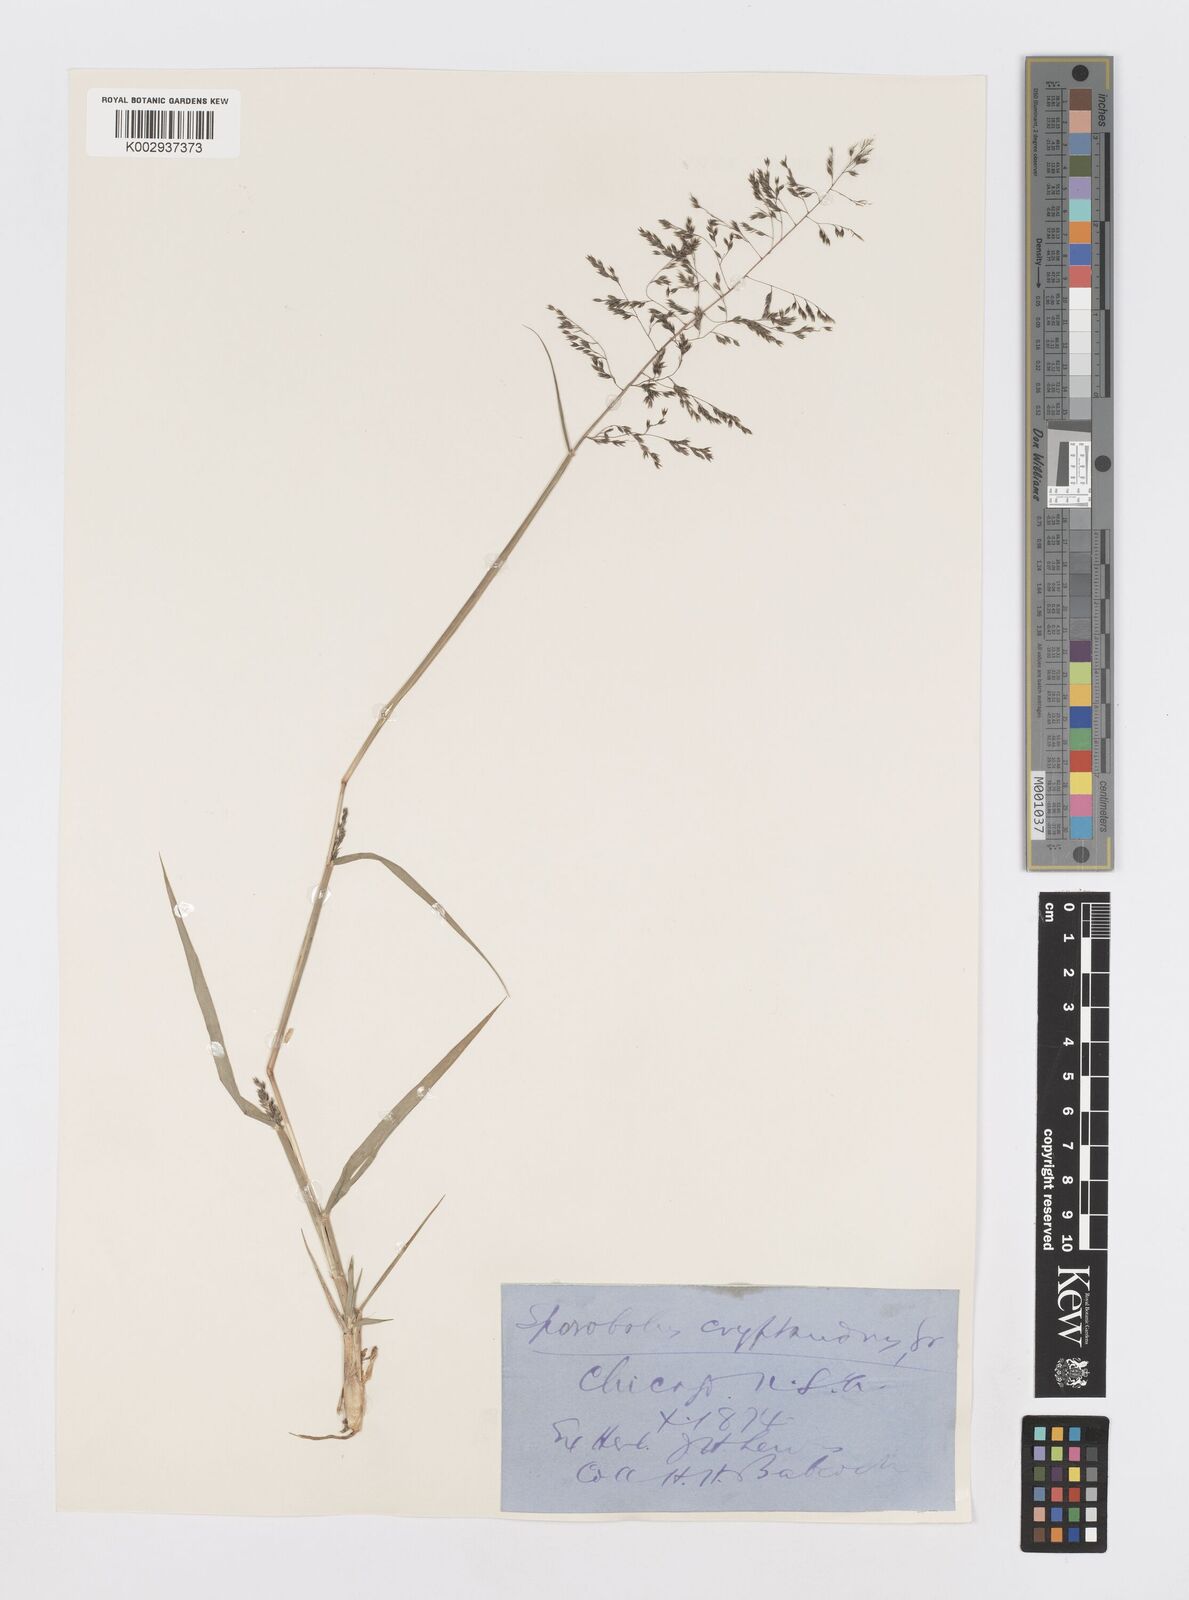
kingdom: Plantae
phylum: Tracheophyta
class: Liliopsida
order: Poales
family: Poaceae
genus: Sporobolus
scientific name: Sporobolus cryptandrus
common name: Sand dropseed
